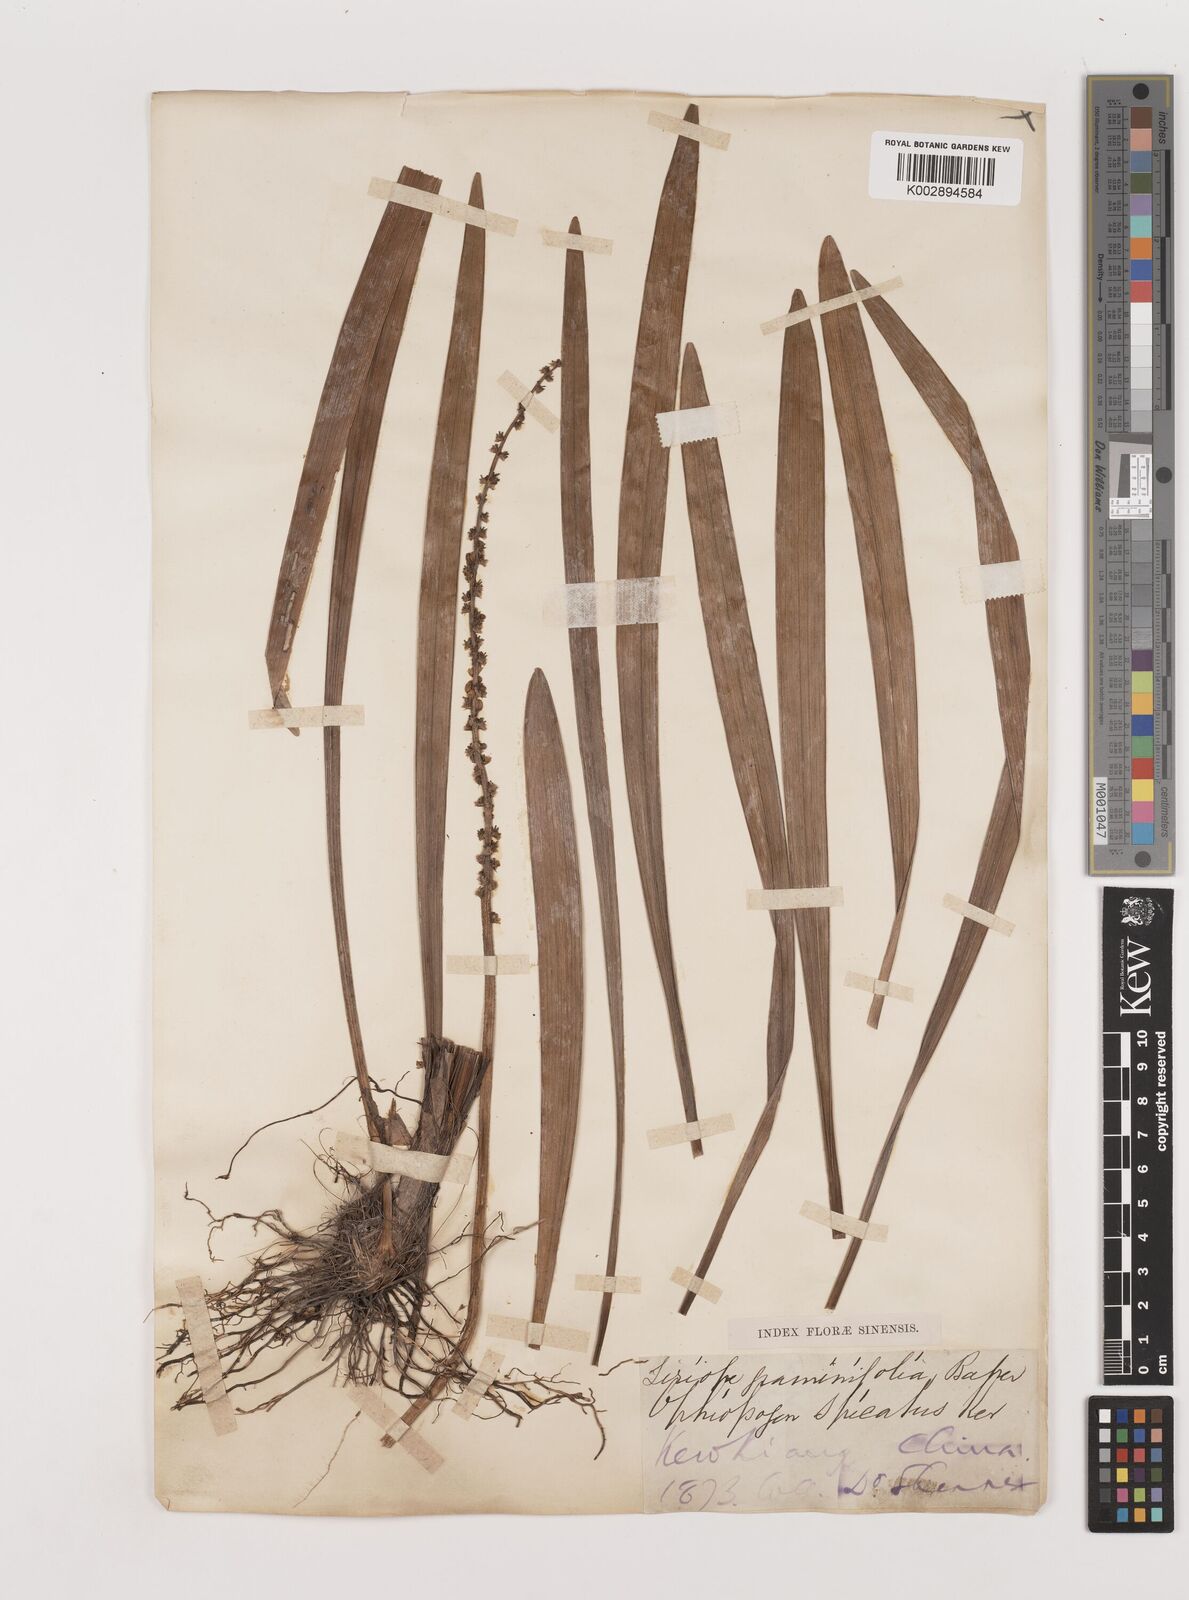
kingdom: Plantae
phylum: Tracheophyta
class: Liliopsida
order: Asparagales
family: Asparagaceae
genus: Liriope
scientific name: Liriope muscari
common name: Big blue lilyturf
